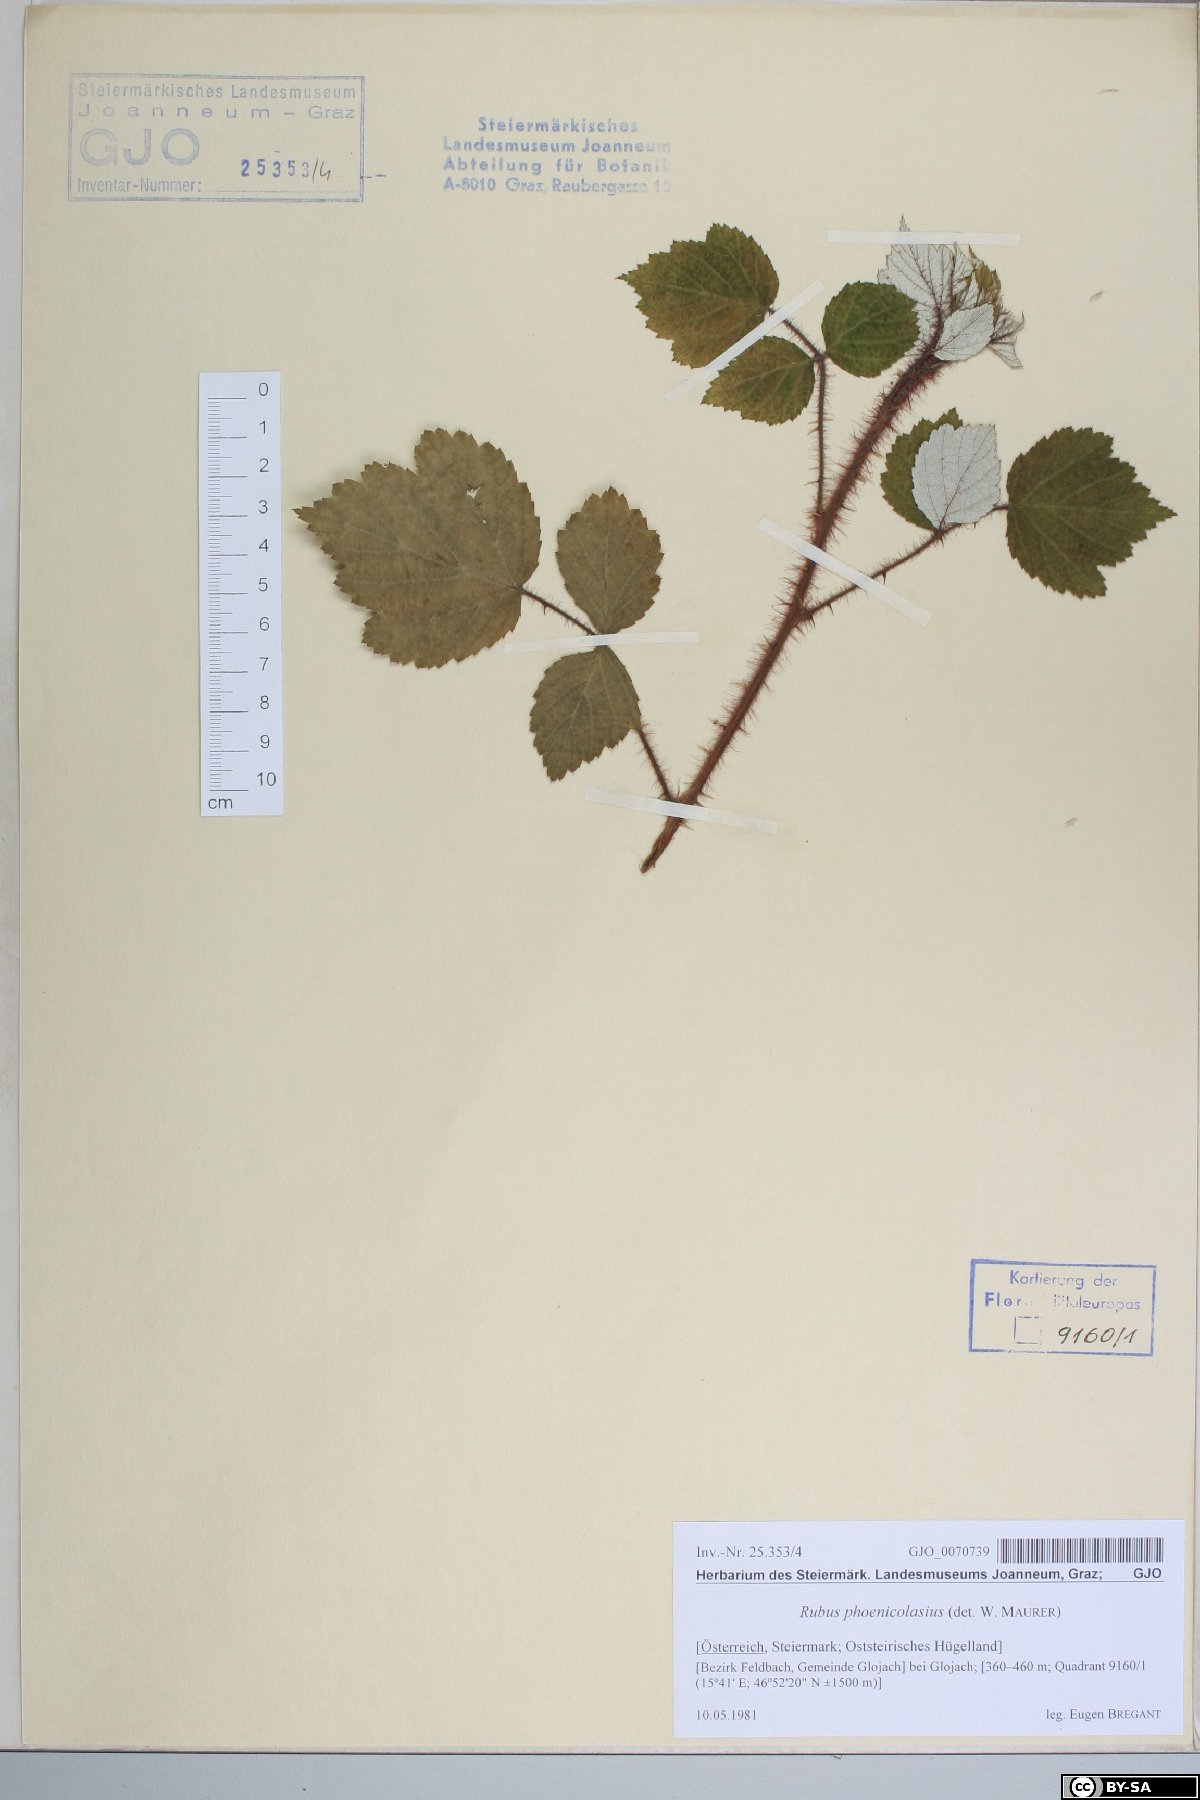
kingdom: Plantae
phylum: Tracheophyta
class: Magnoliopsida
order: Rosales
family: Rosaceae
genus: Rubus
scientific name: Rubus phoenicolasius
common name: Japanese wineberry
